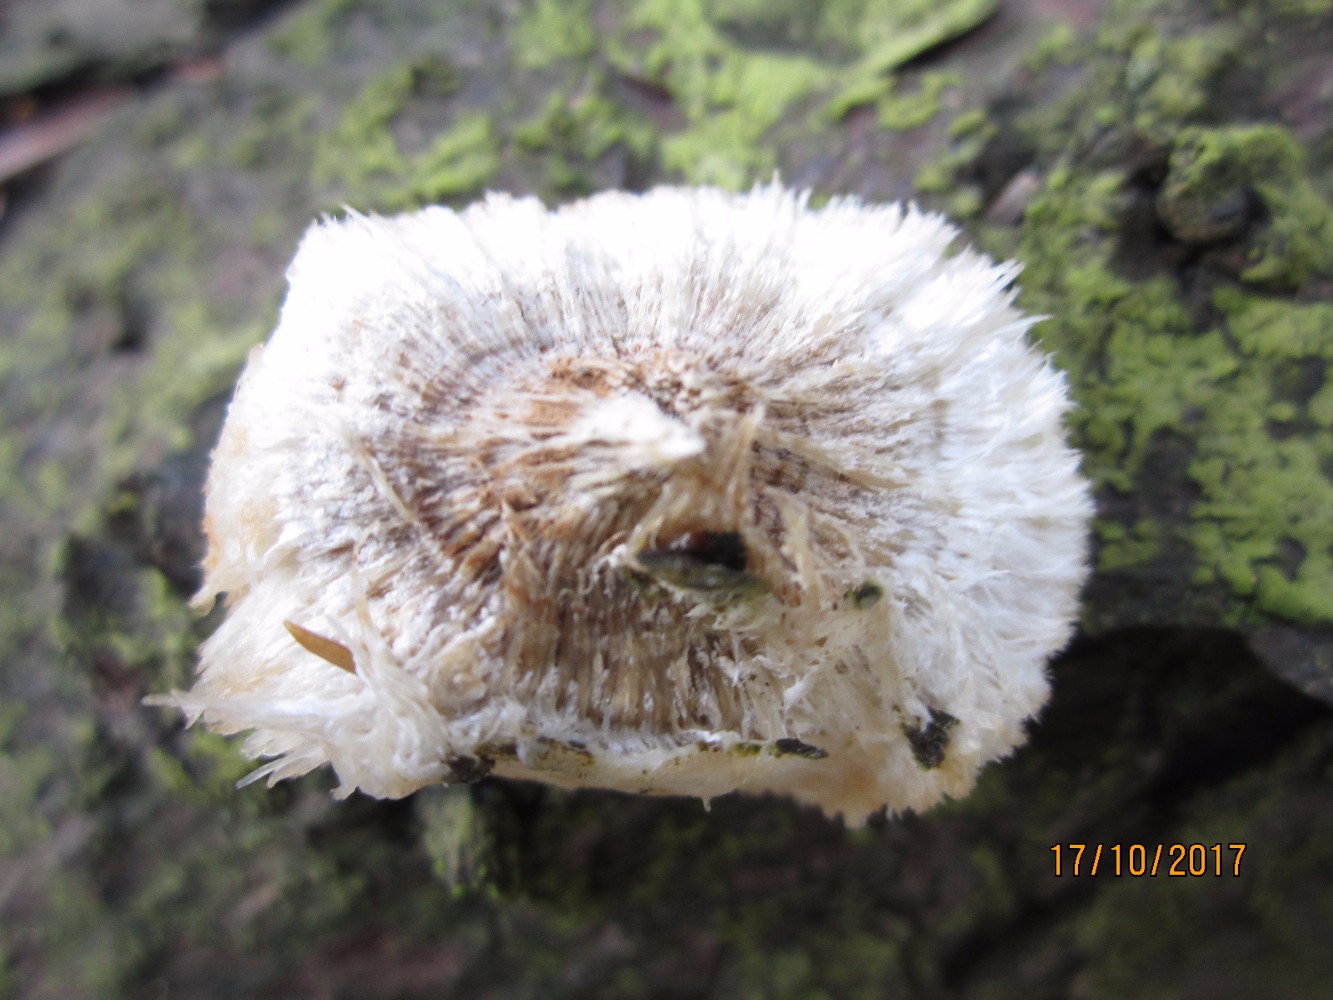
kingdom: Fungi
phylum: Basidiomycota
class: Agaricomycetes
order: Polyporales
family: Dacryobolaceae
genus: Postia
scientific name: Postia ptychogaster
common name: støvende kødporesvamp
